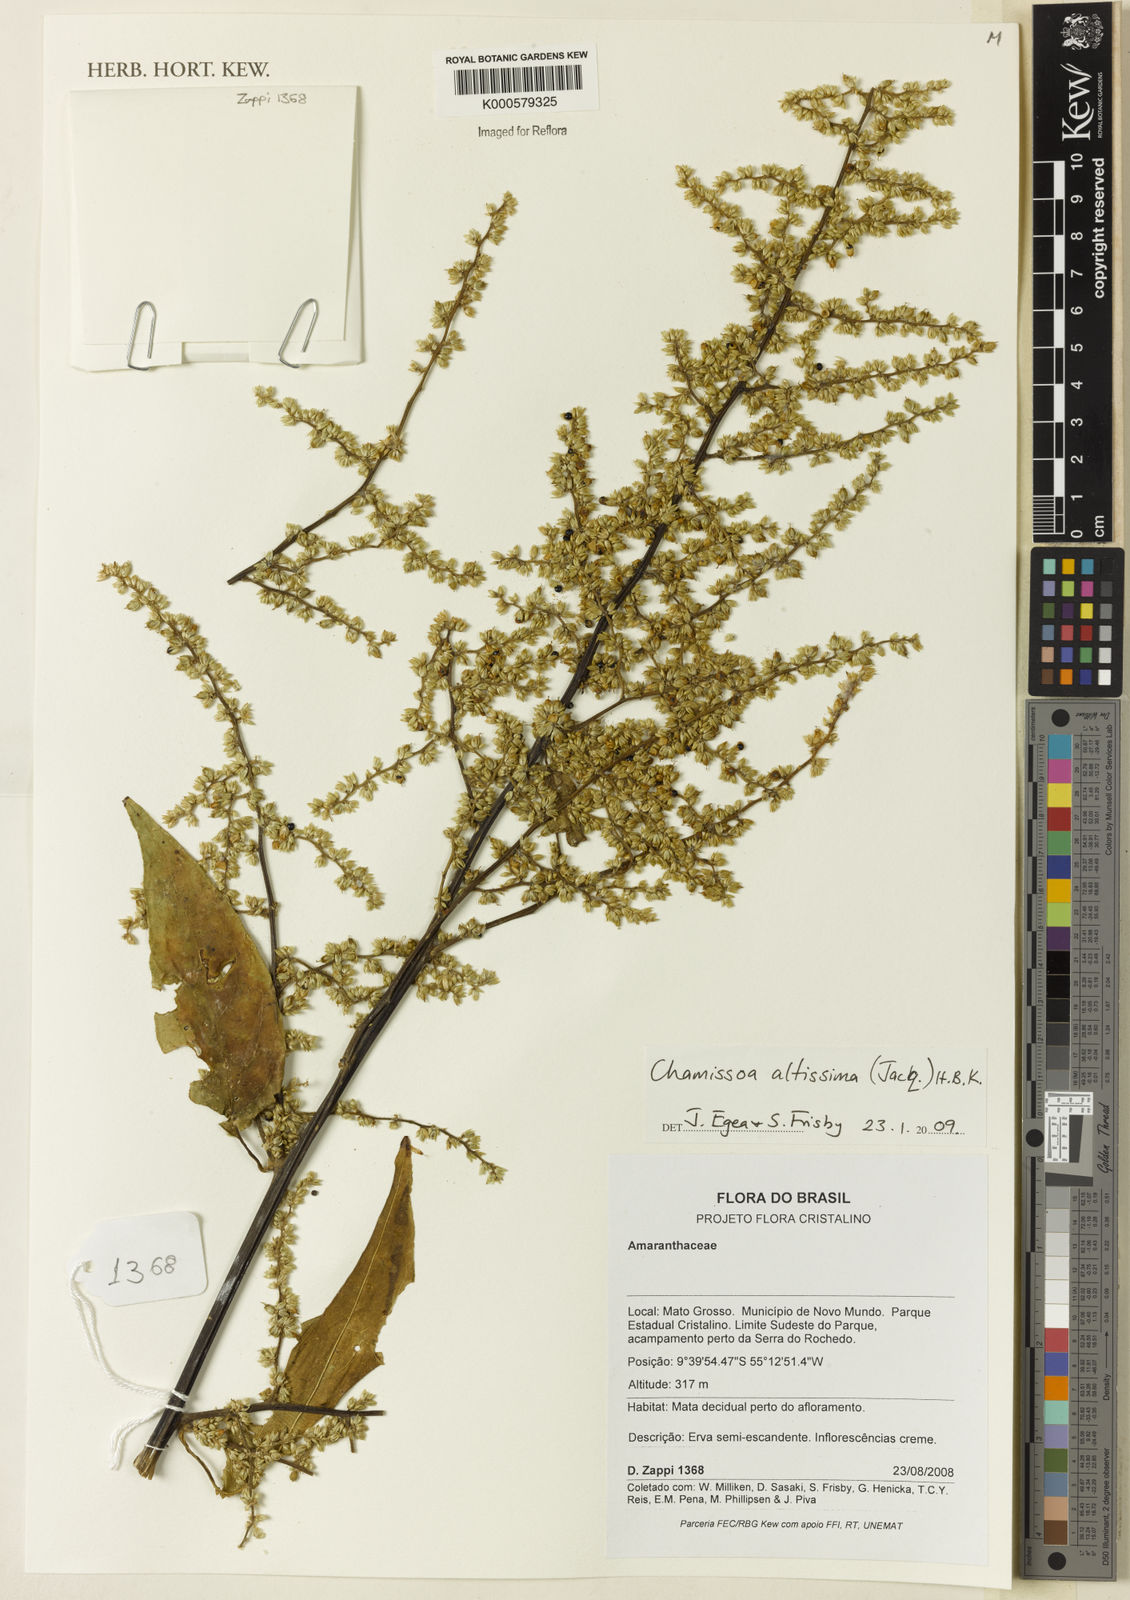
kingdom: Plantae
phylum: Tracheophyta
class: Magnoliopsida
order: Caryophyllales
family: Amaranthaceae
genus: Chamissoa
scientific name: Chamissoa altissima
